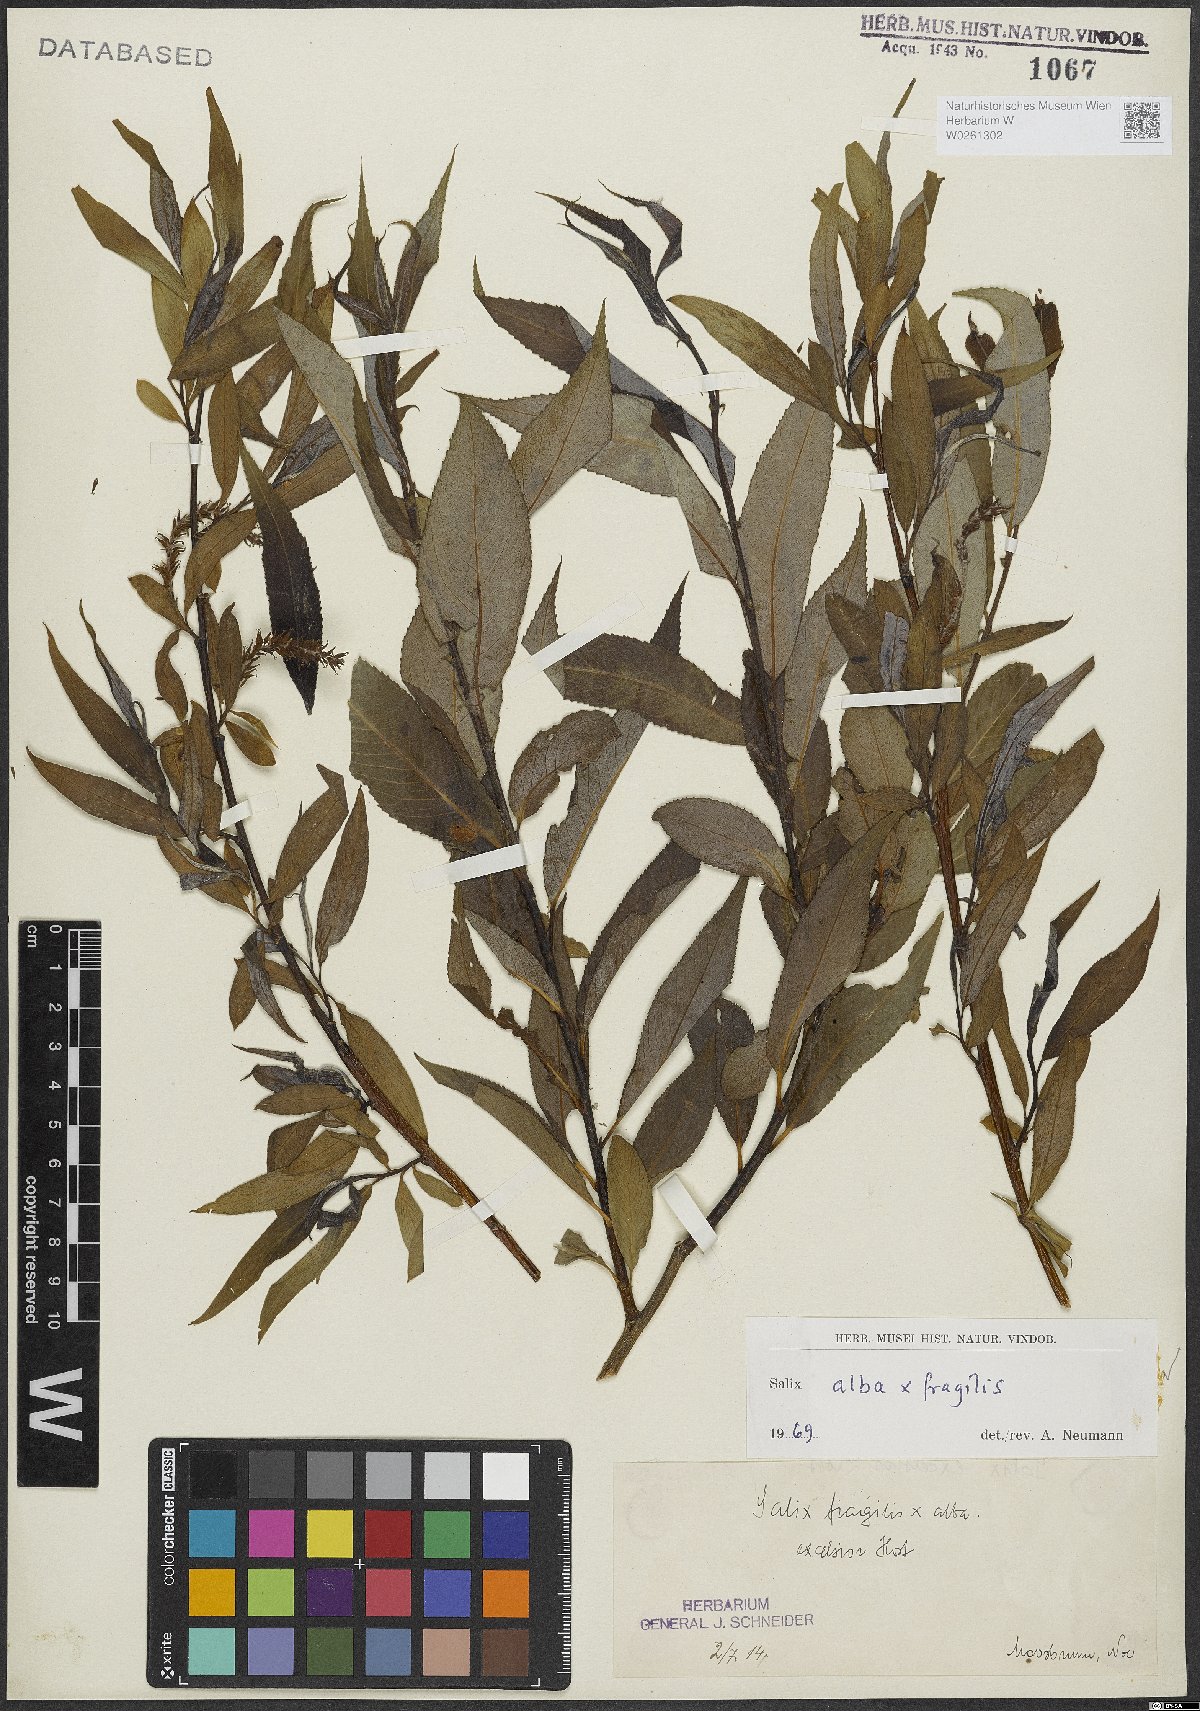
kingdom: Plantae
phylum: Tracheophyta
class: Magnoliopsida
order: Malpighiales
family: Salicaceae
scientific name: Salicaceae
